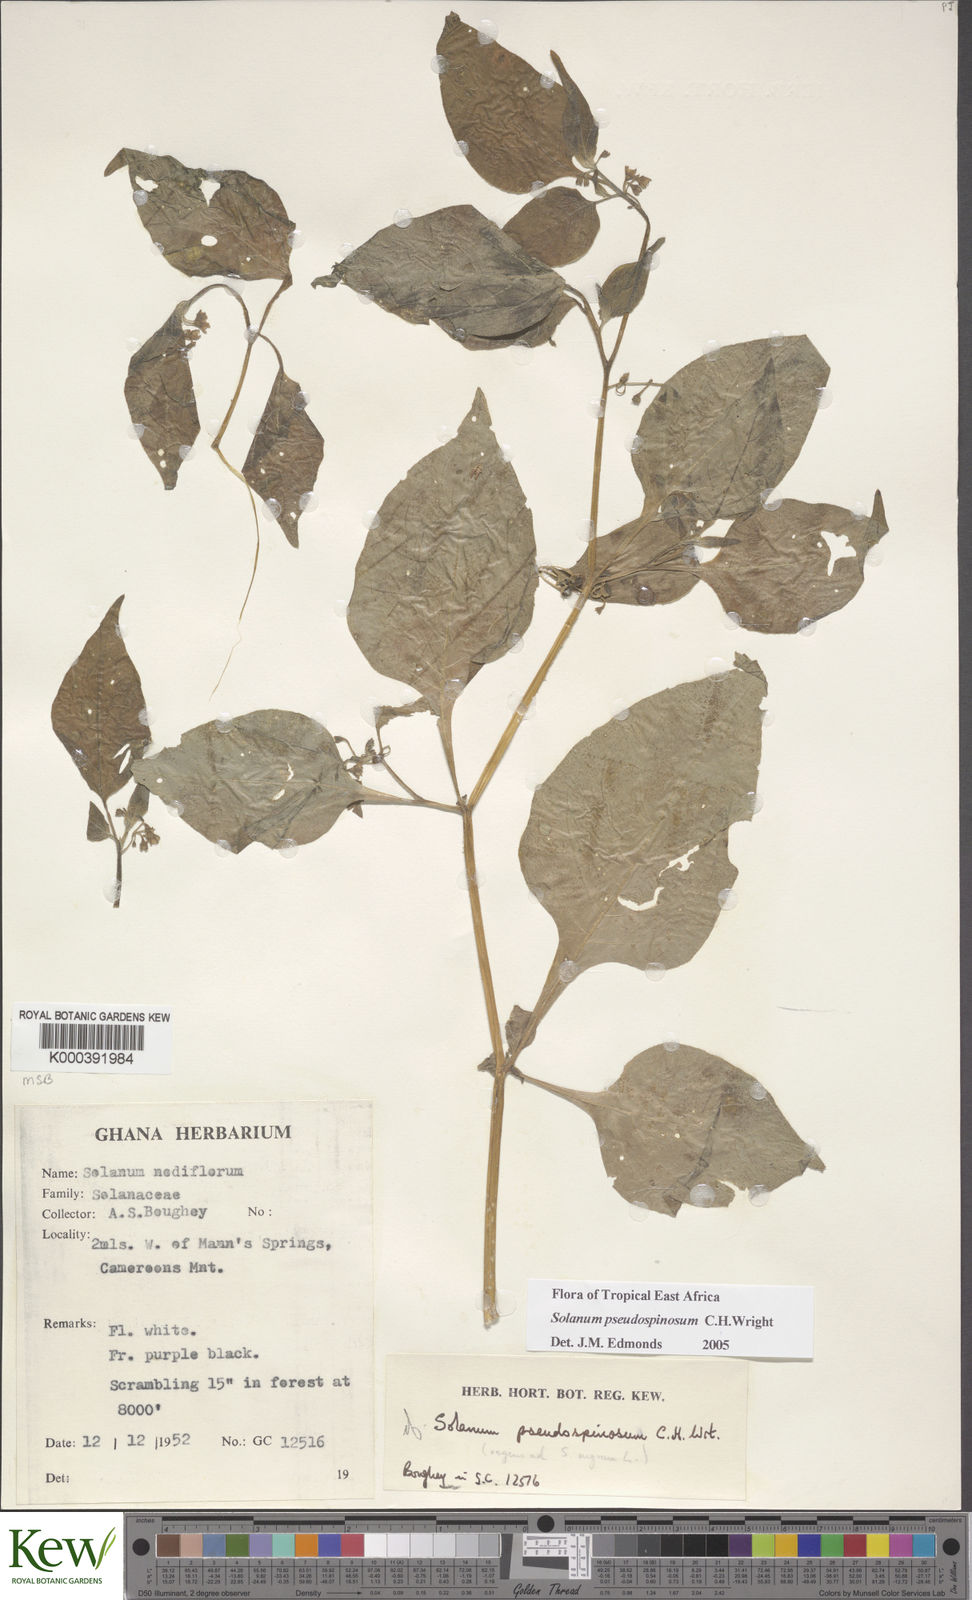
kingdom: Plantae
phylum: Tracheophyta
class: Magnoliopsida
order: Solanales
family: Solanaceae
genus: Solanum
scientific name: Solanum tarderemotum
